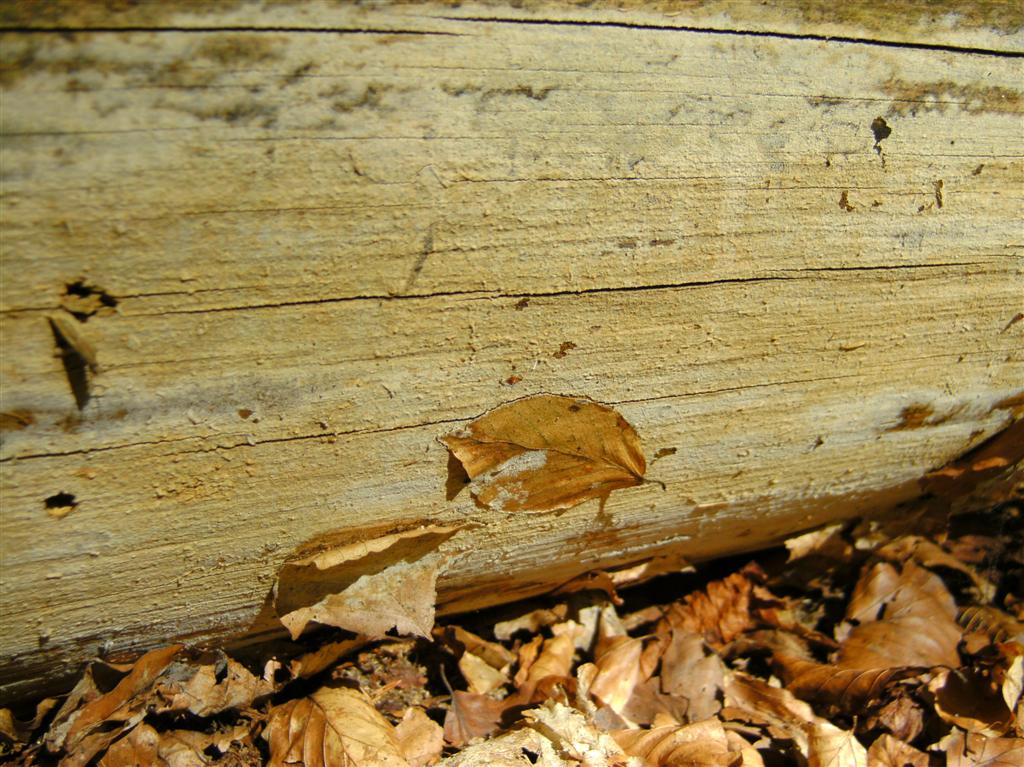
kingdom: Fungi
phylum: Basidiomycota
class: Agaricomycetes
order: Cantharellales
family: Botryobasidiaceae
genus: Botryobasidium
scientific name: Botryobasidium vagum
